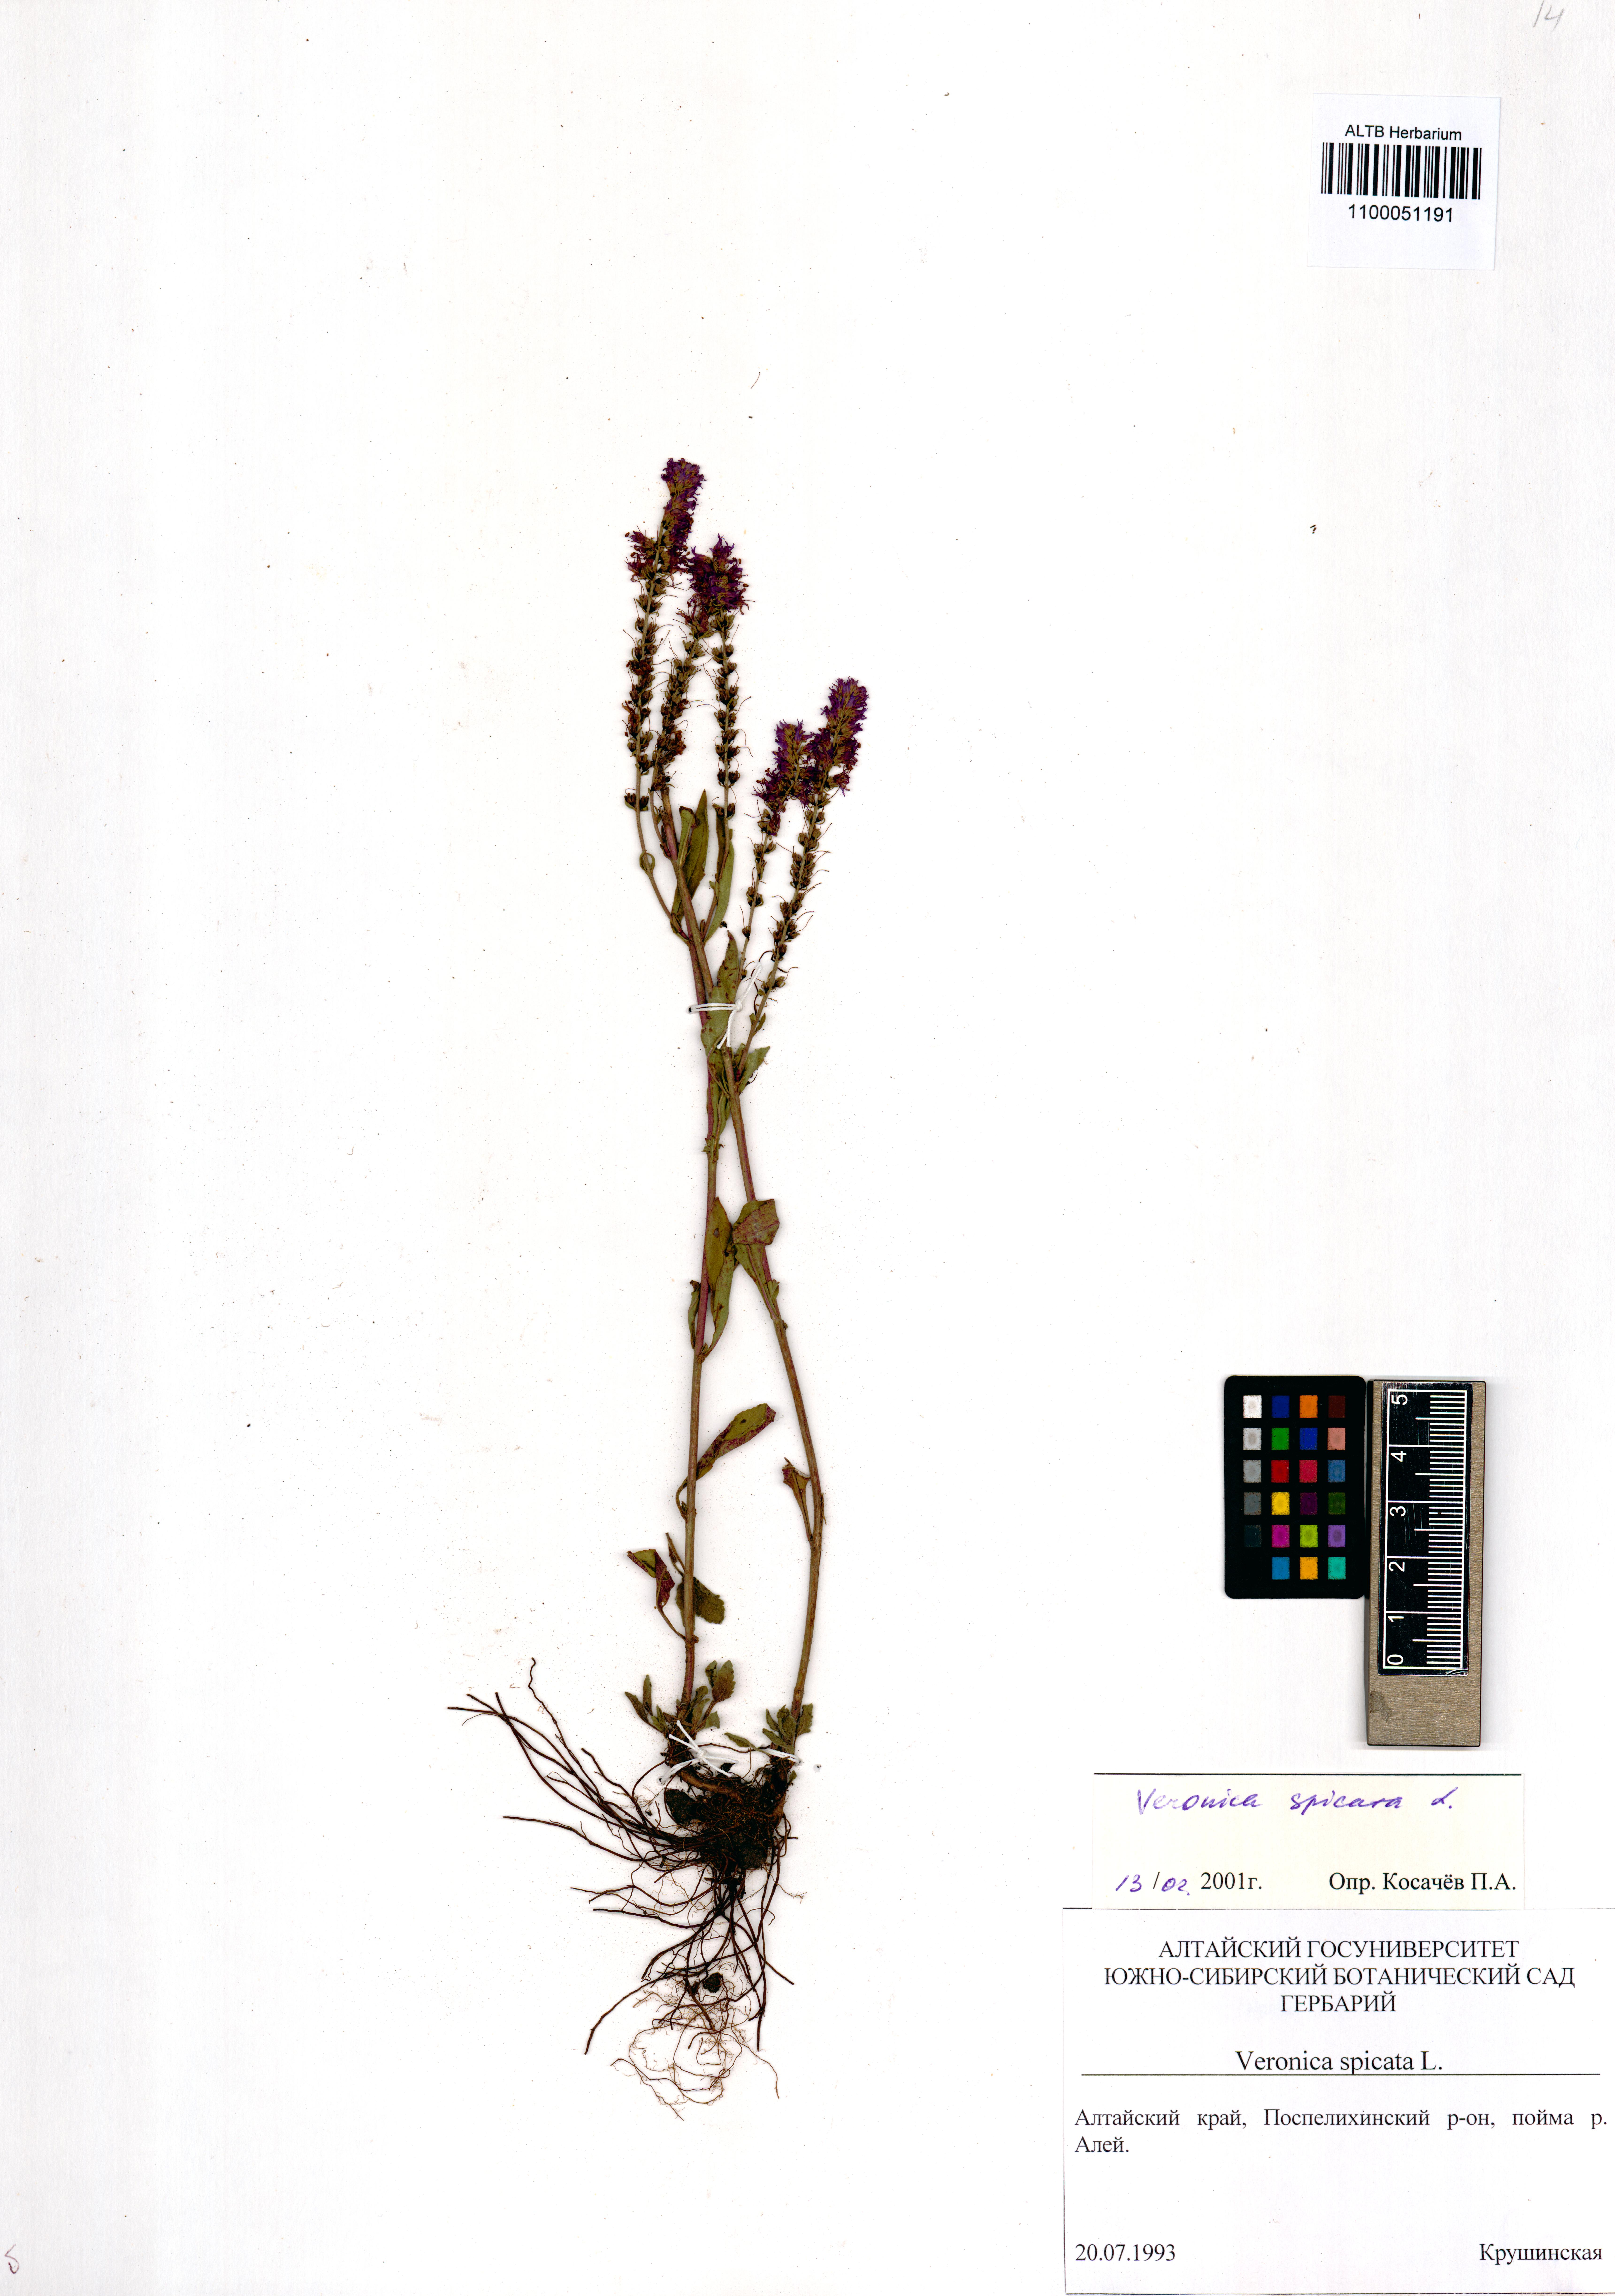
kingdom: Plantae
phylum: Tracheophyta
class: Magnoliopsida
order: Lamiales
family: Plantaginaceae
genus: Veronica
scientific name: Veronica spicata
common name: Spiked speedwell
